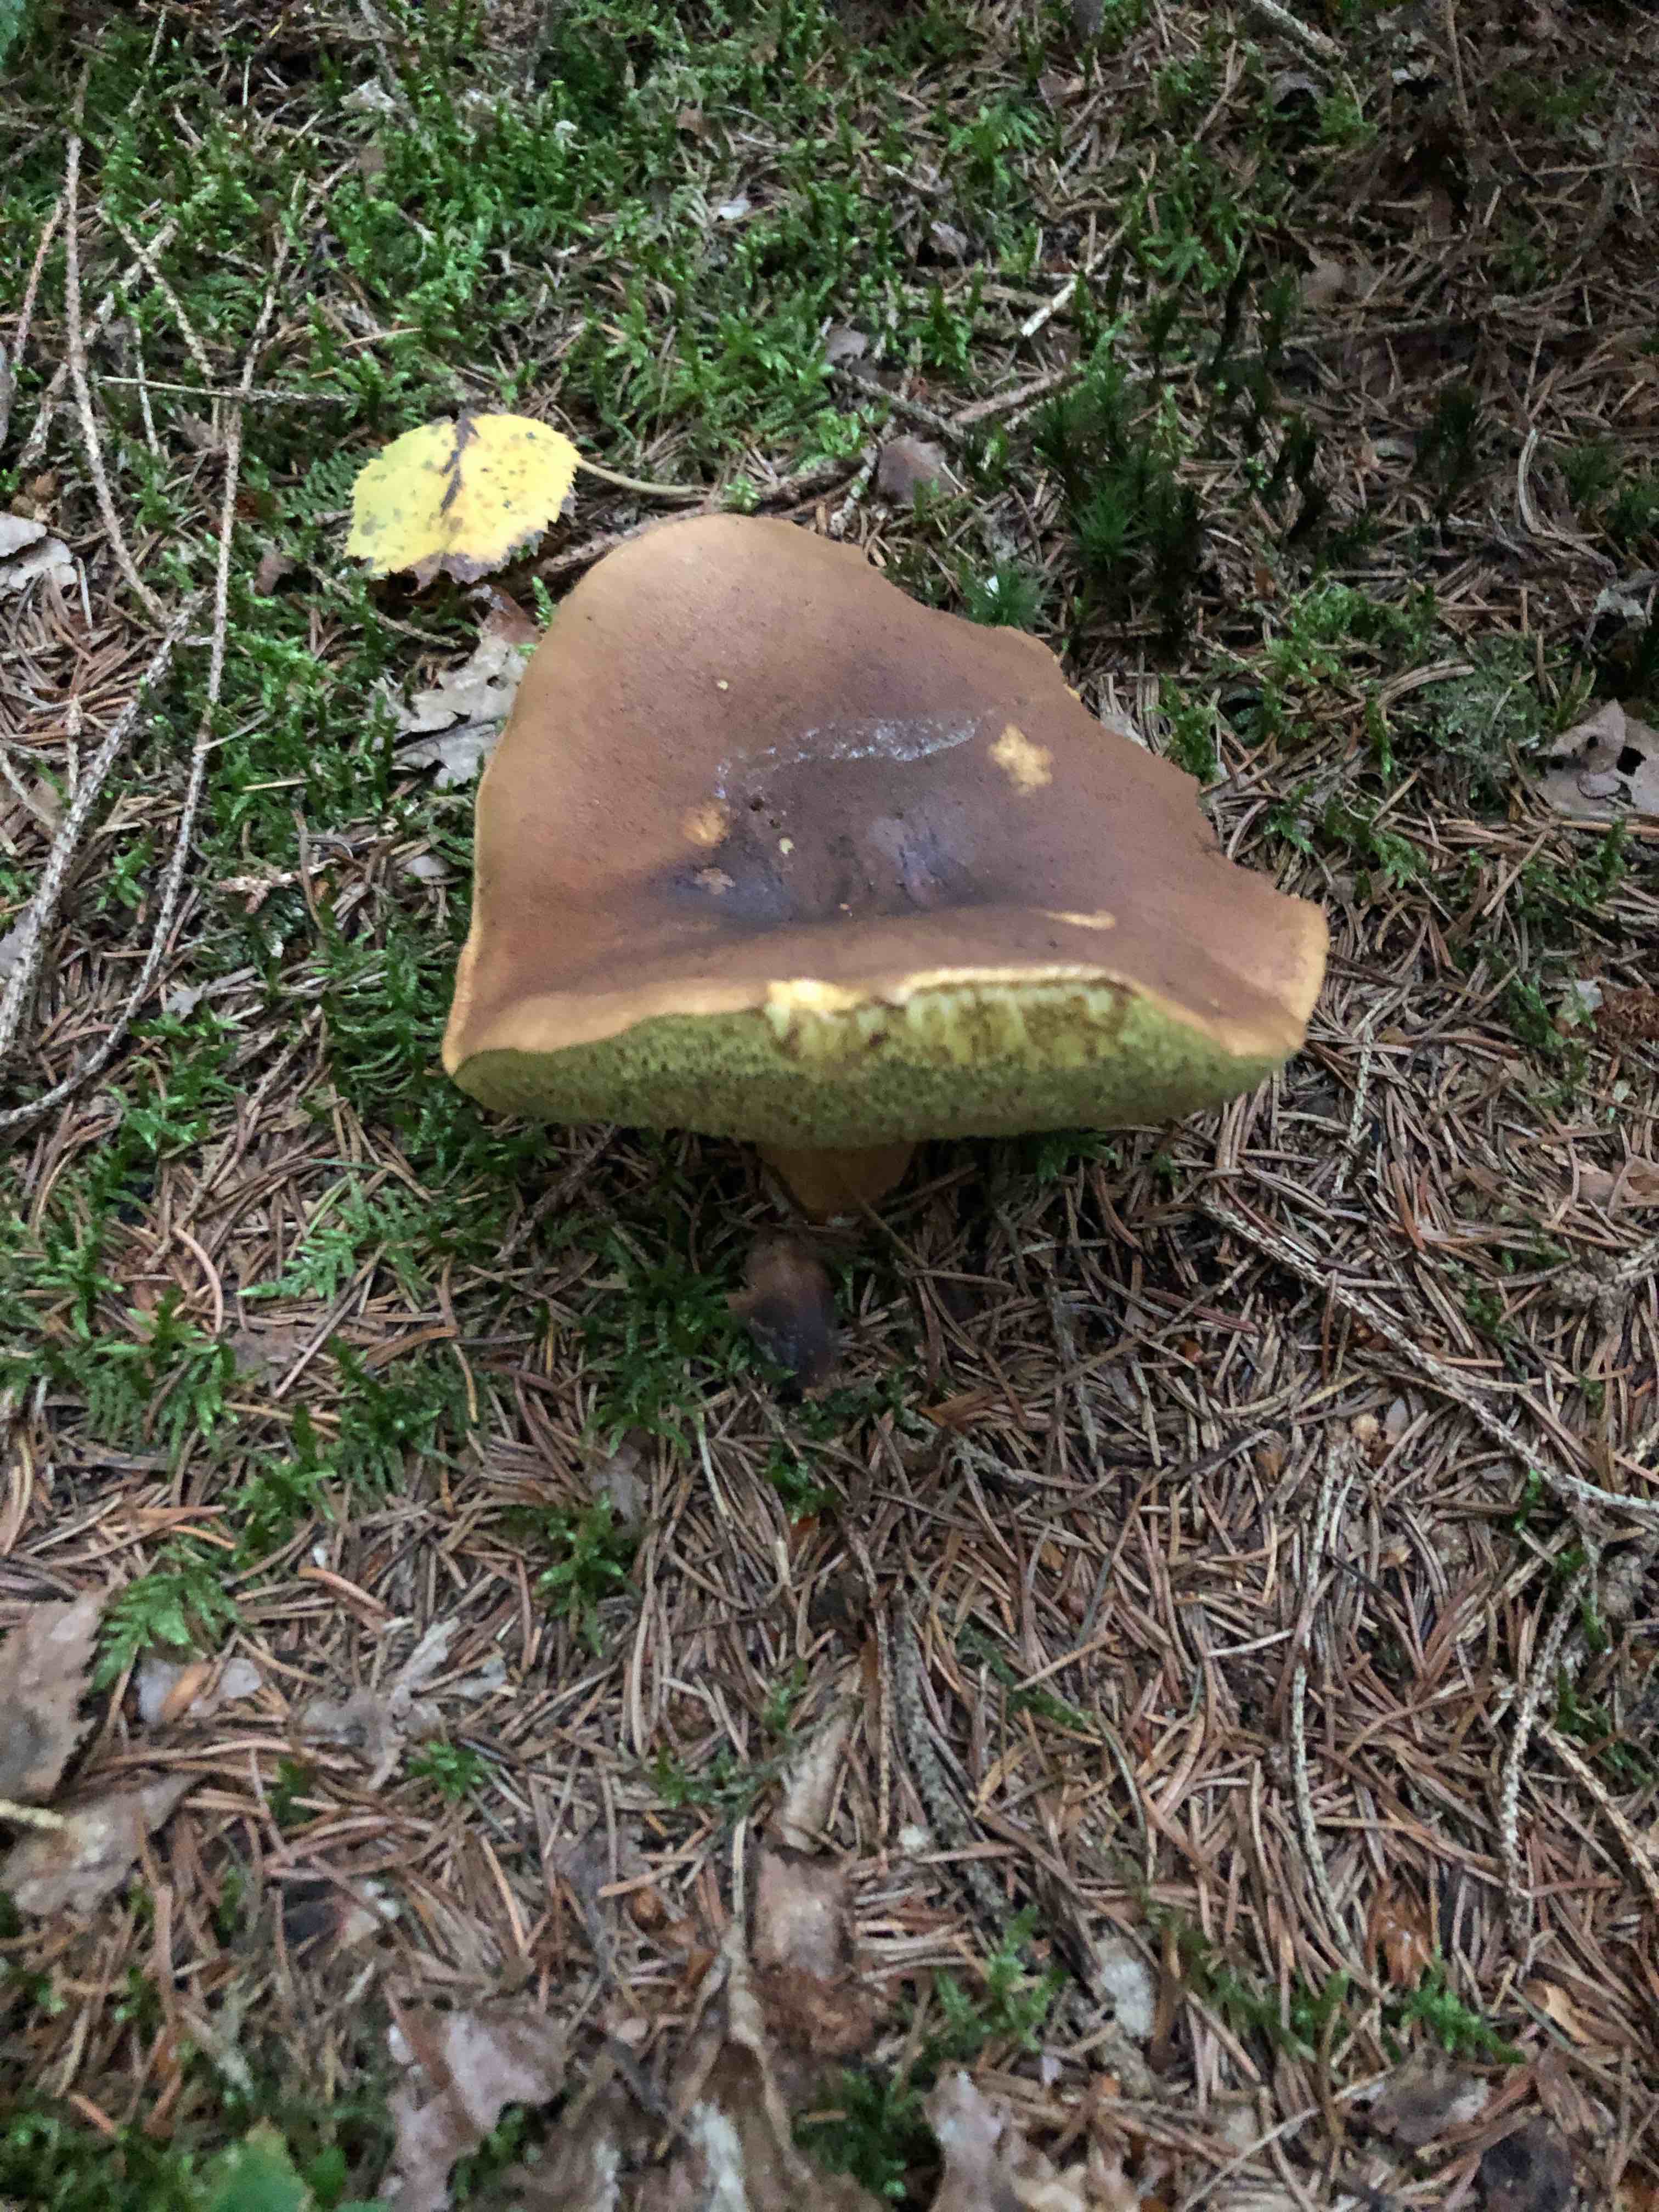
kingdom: Fungi
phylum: Basidiomycota
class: Agaricomycetes
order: Boletales
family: Boletaceae
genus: Imleria
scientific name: Imleria badia
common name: brunstokket rørhat
